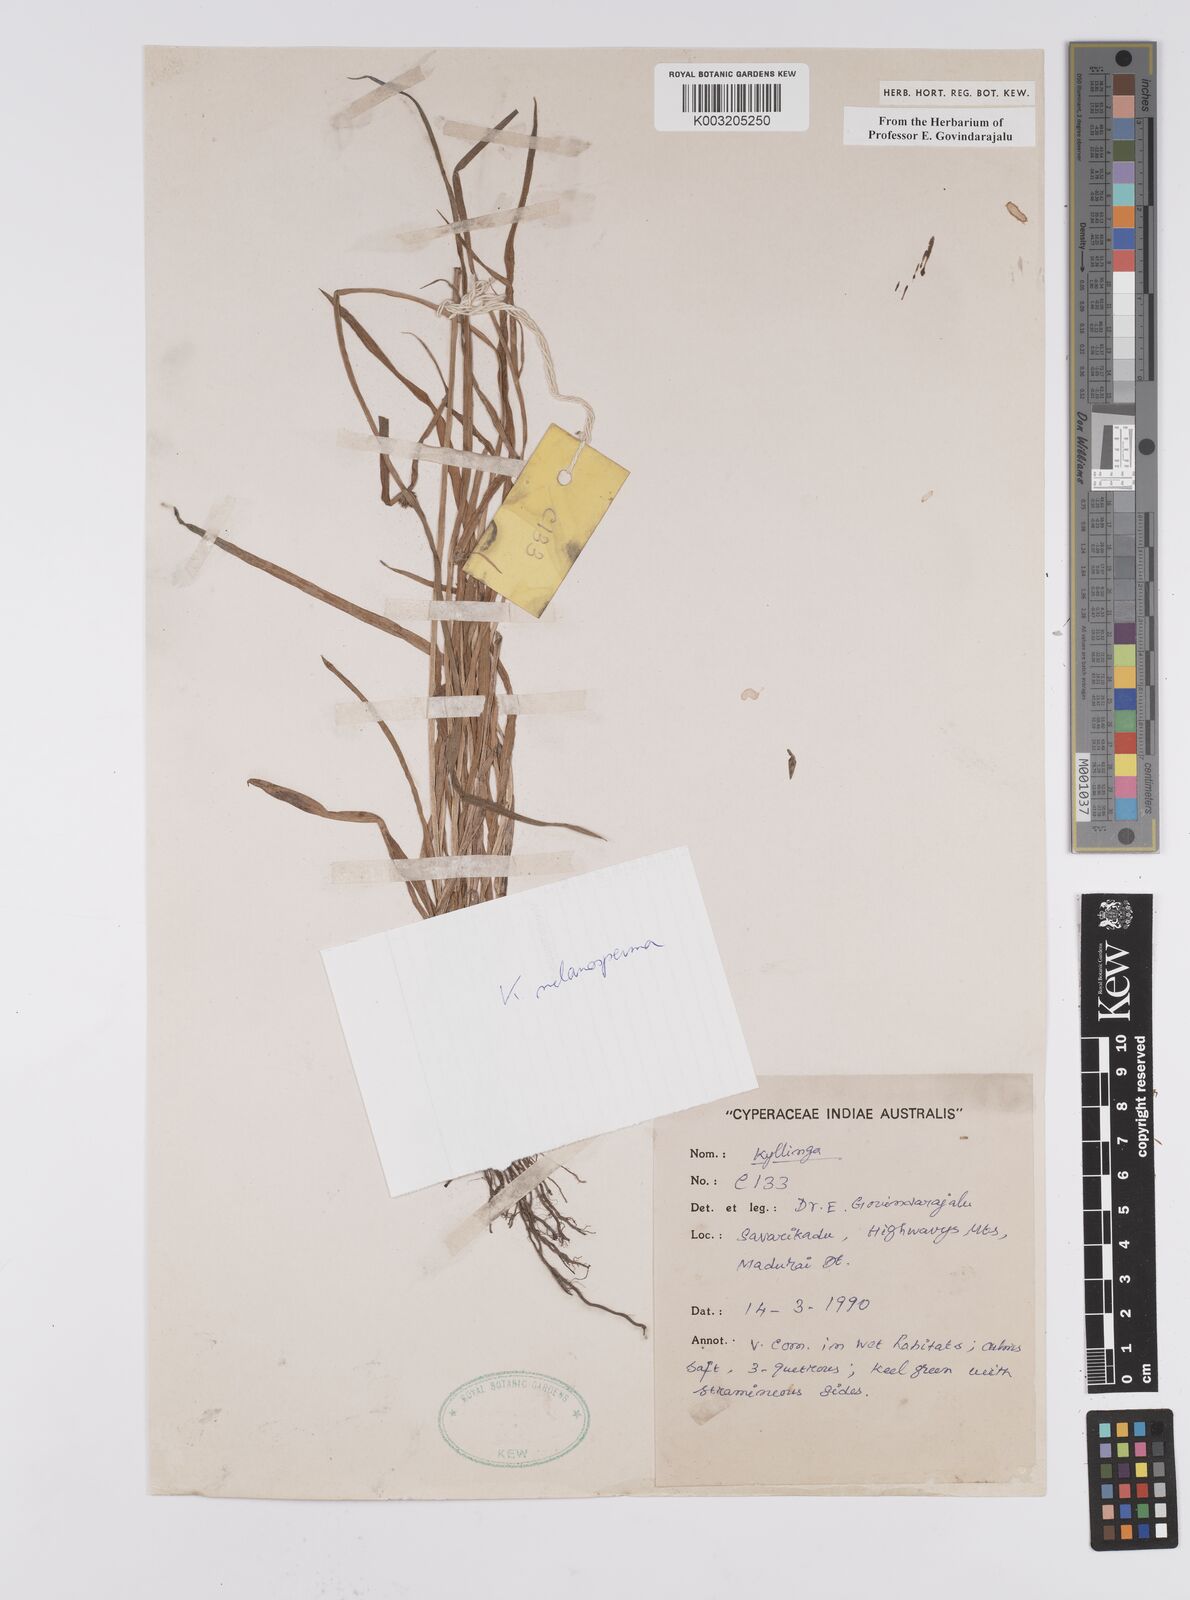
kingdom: Plantae
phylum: Tracheophyta
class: Liliopsida
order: Poales
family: Cyperaceae
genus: Cyperus
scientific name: Cyperus melanospermus
